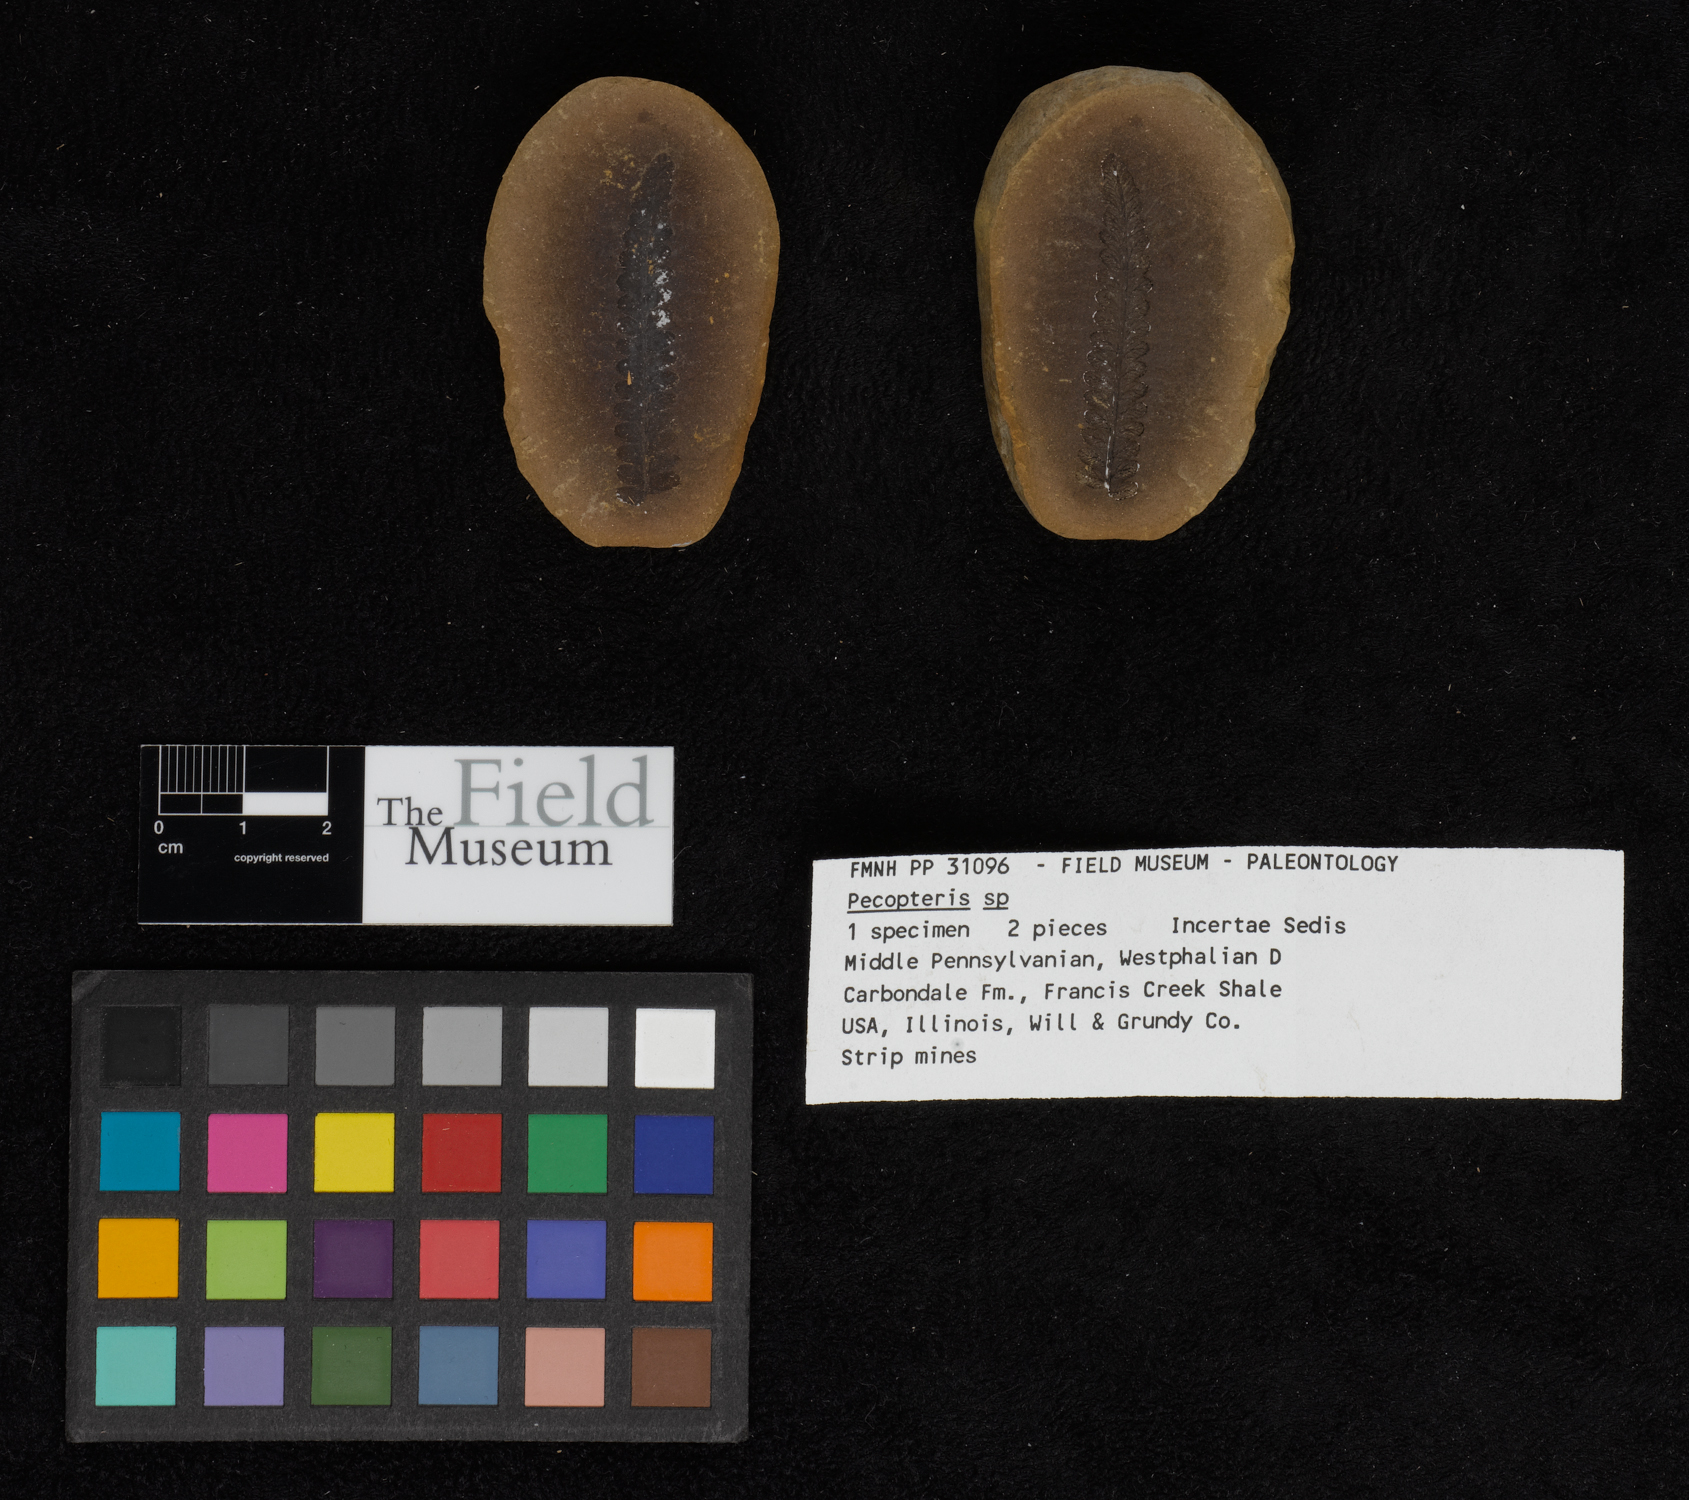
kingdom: Plantae
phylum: Tracheophyta
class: Polypodiopsida
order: Marattiales
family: Asterothecaceae
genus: Pecopteris
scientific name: Pecopteris
